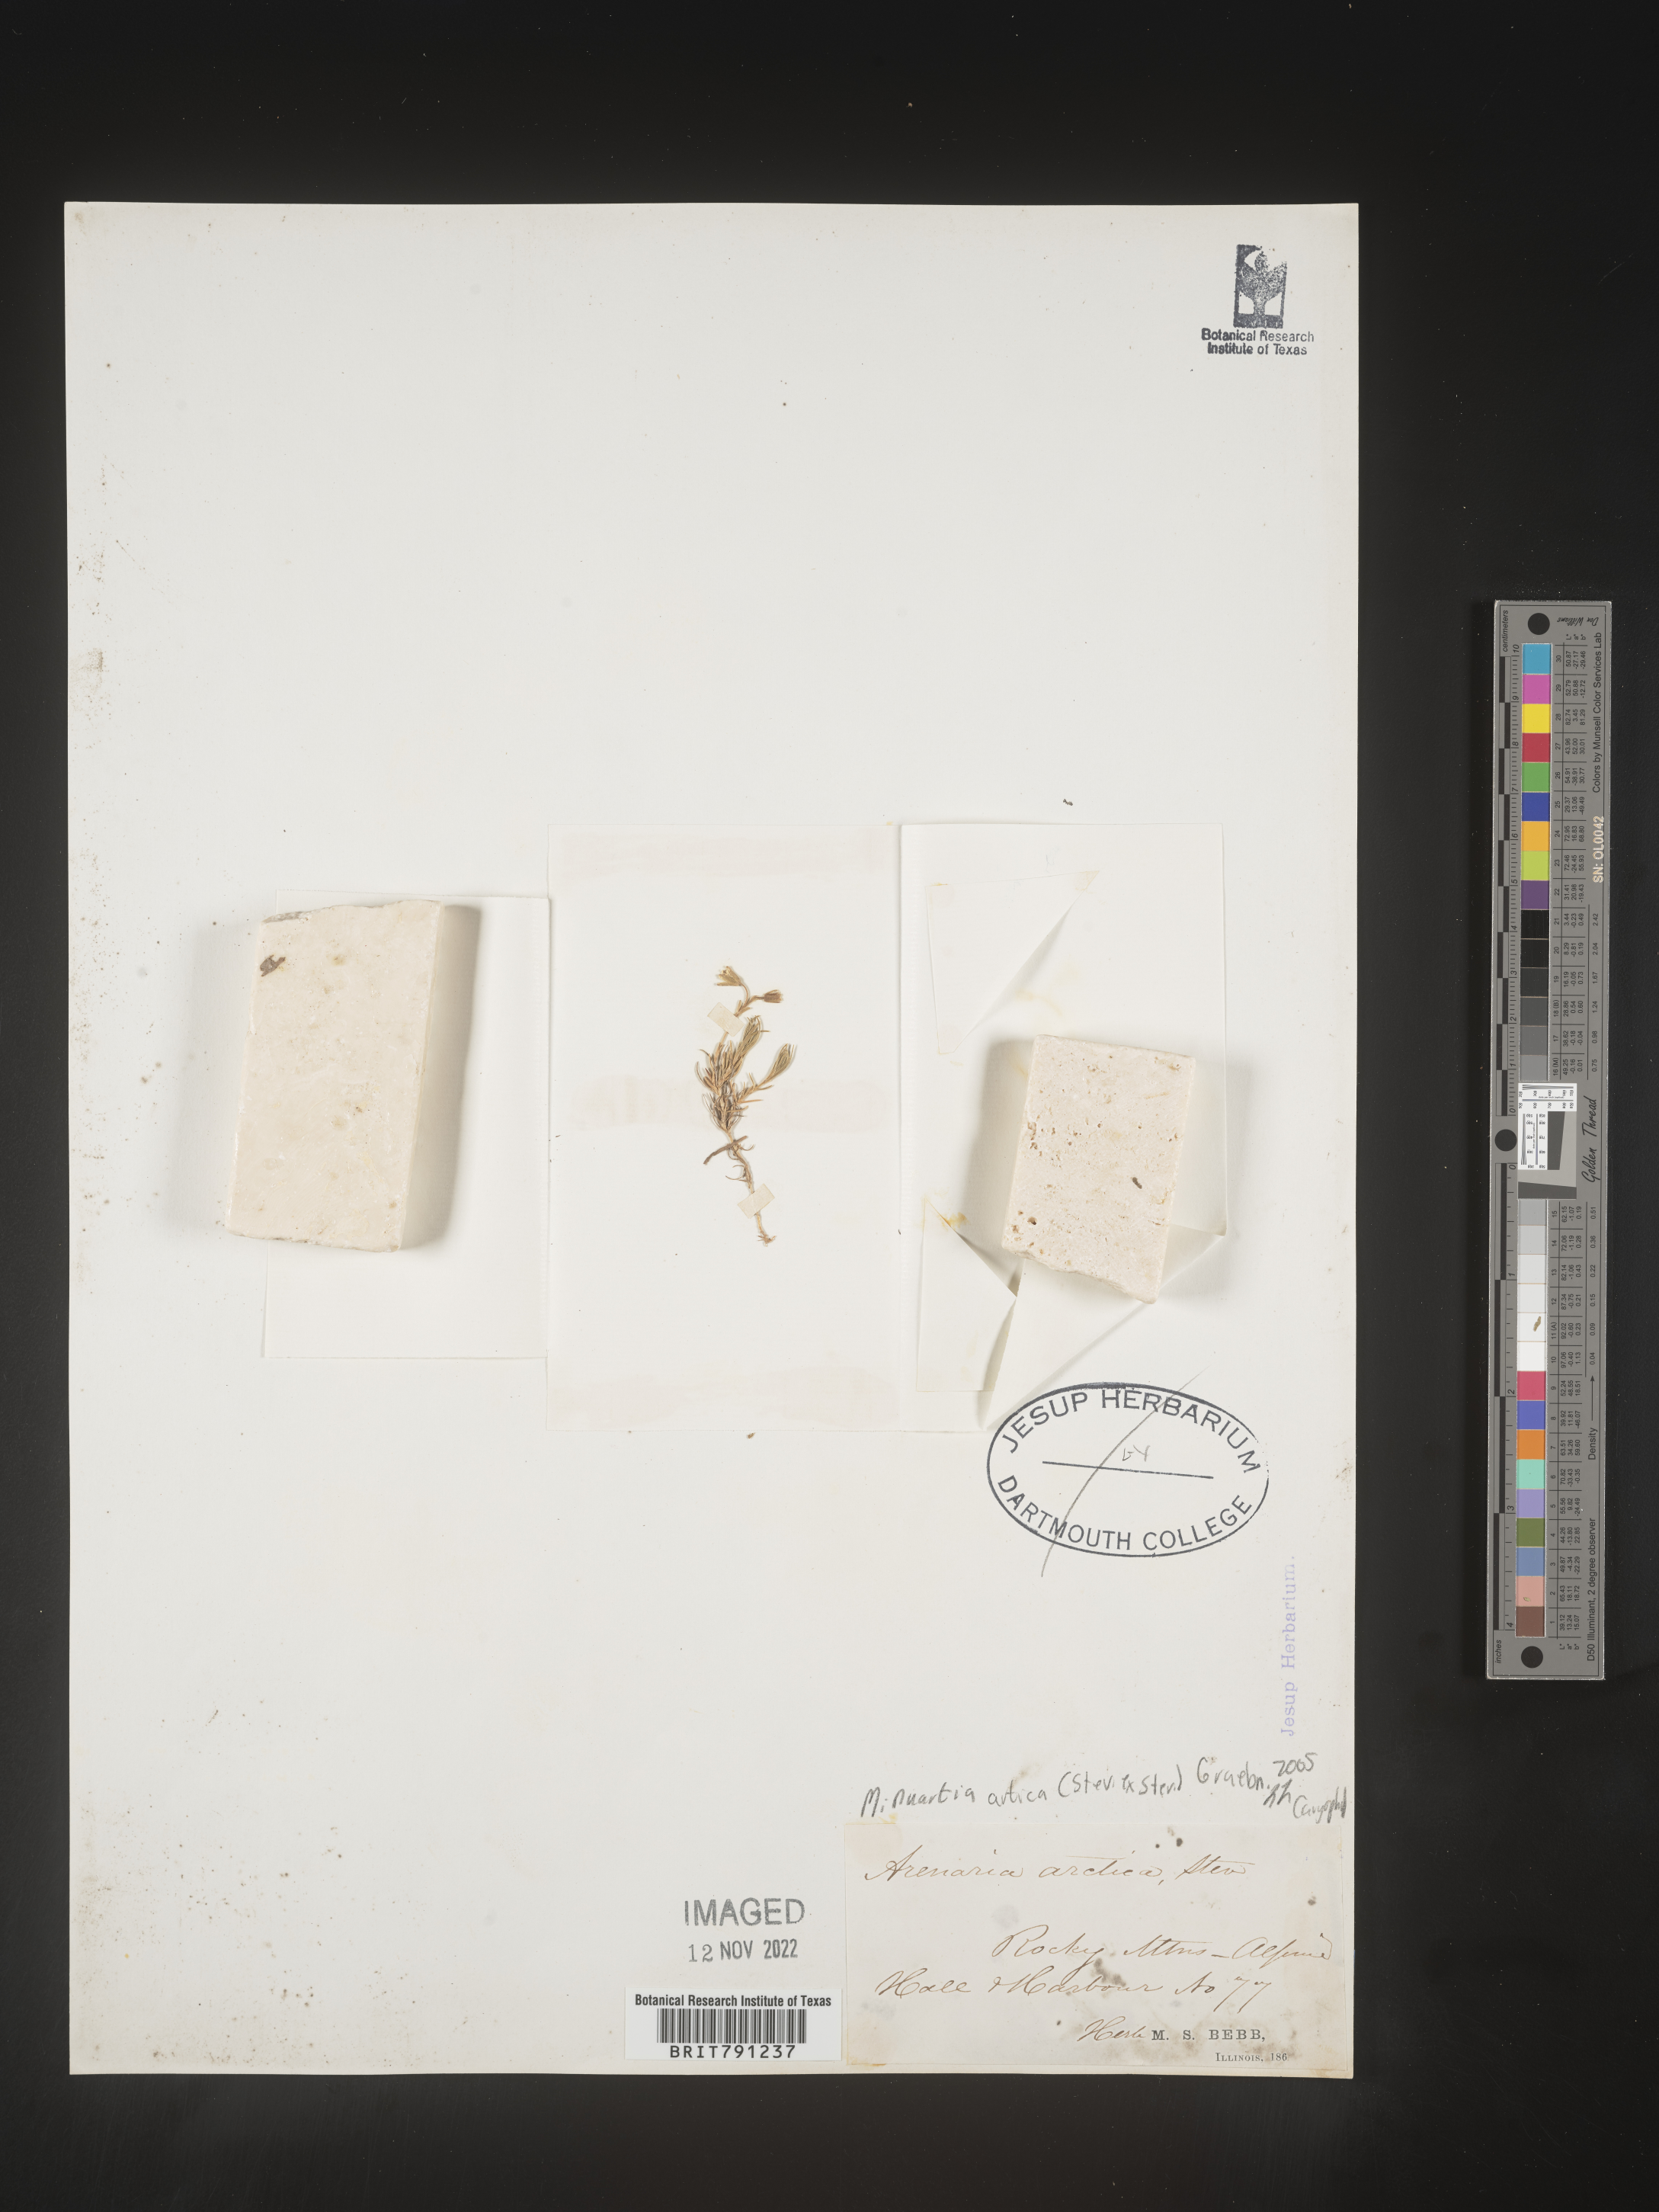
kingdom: Plantae
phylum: Tracheophyta
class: Magnoliopsida
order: Caryophyllales
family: Caryophyllaceae
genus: Minuartia
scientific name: Minuartia
